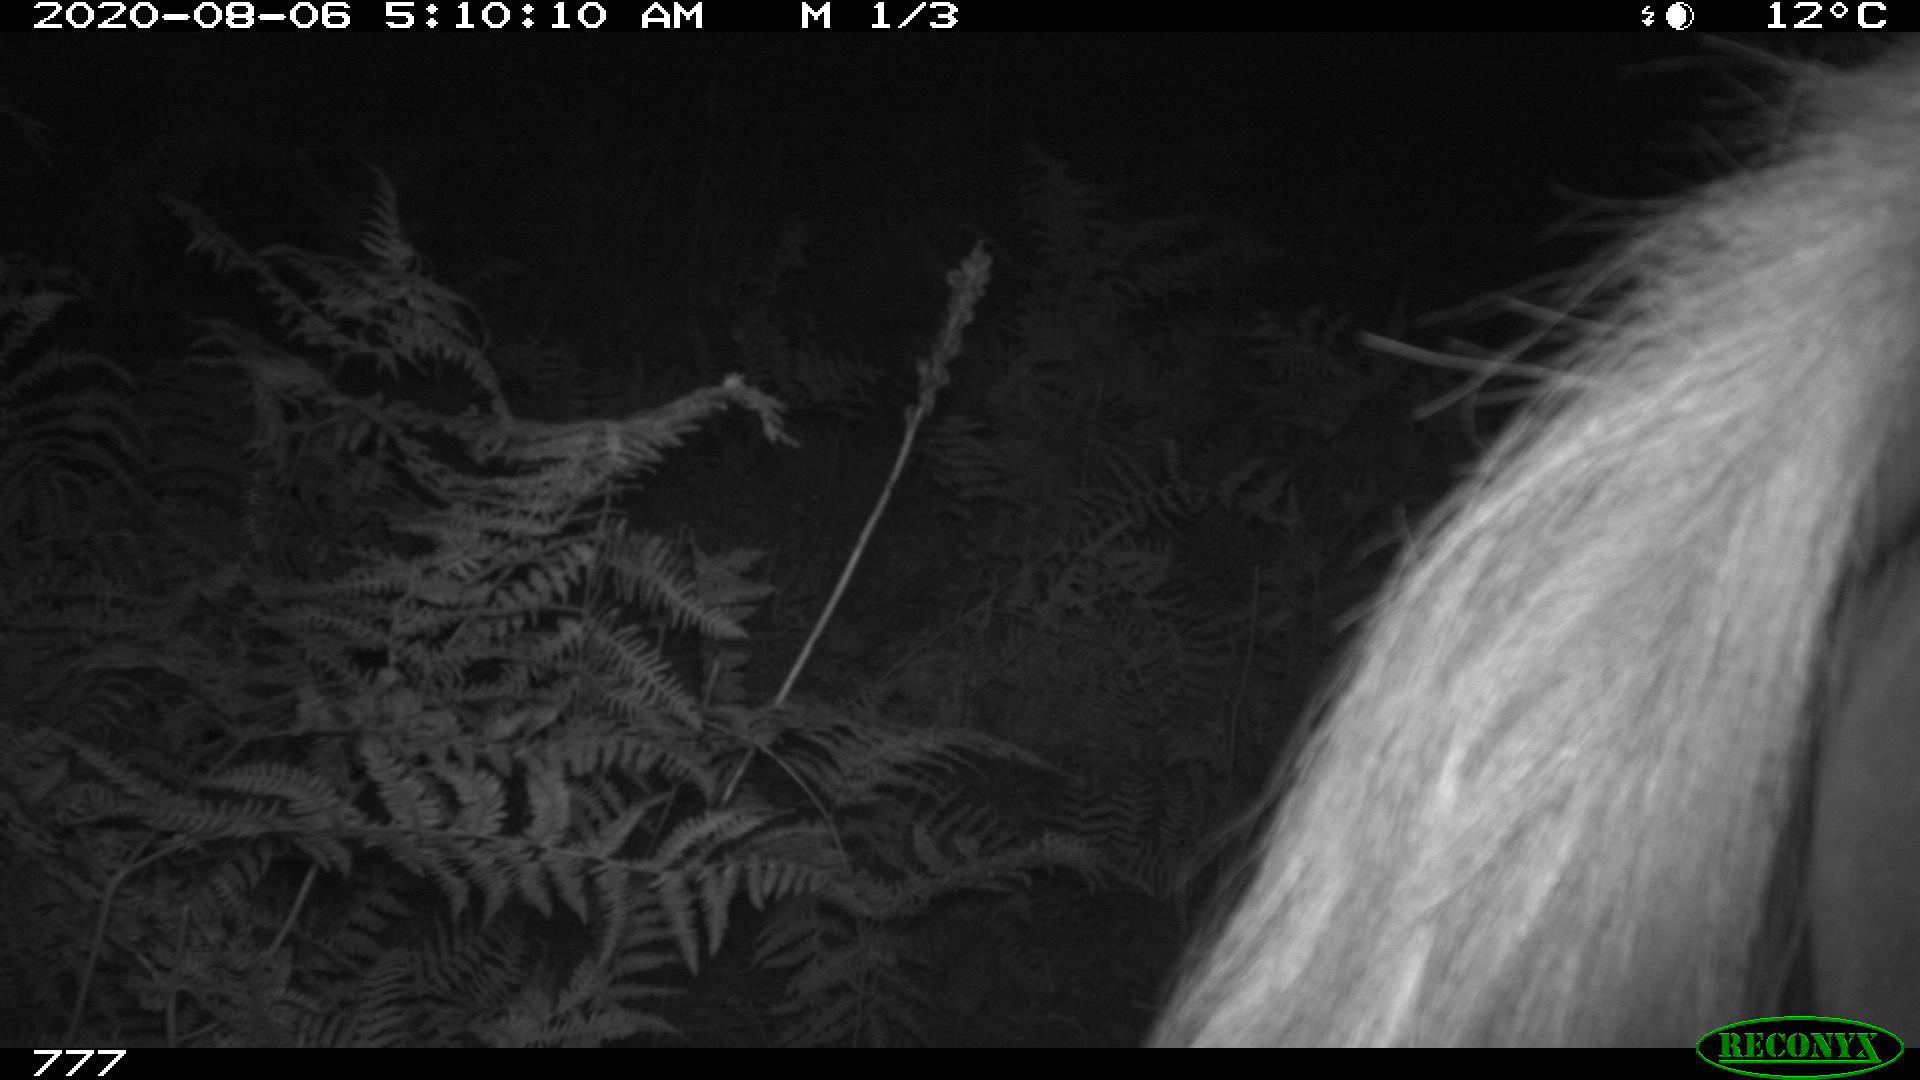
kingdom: Animalia
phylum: Chordata
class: Mammalia
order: Perissodactyla
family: Equidae
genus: Equus
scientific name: Equus caballus
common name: Horse
